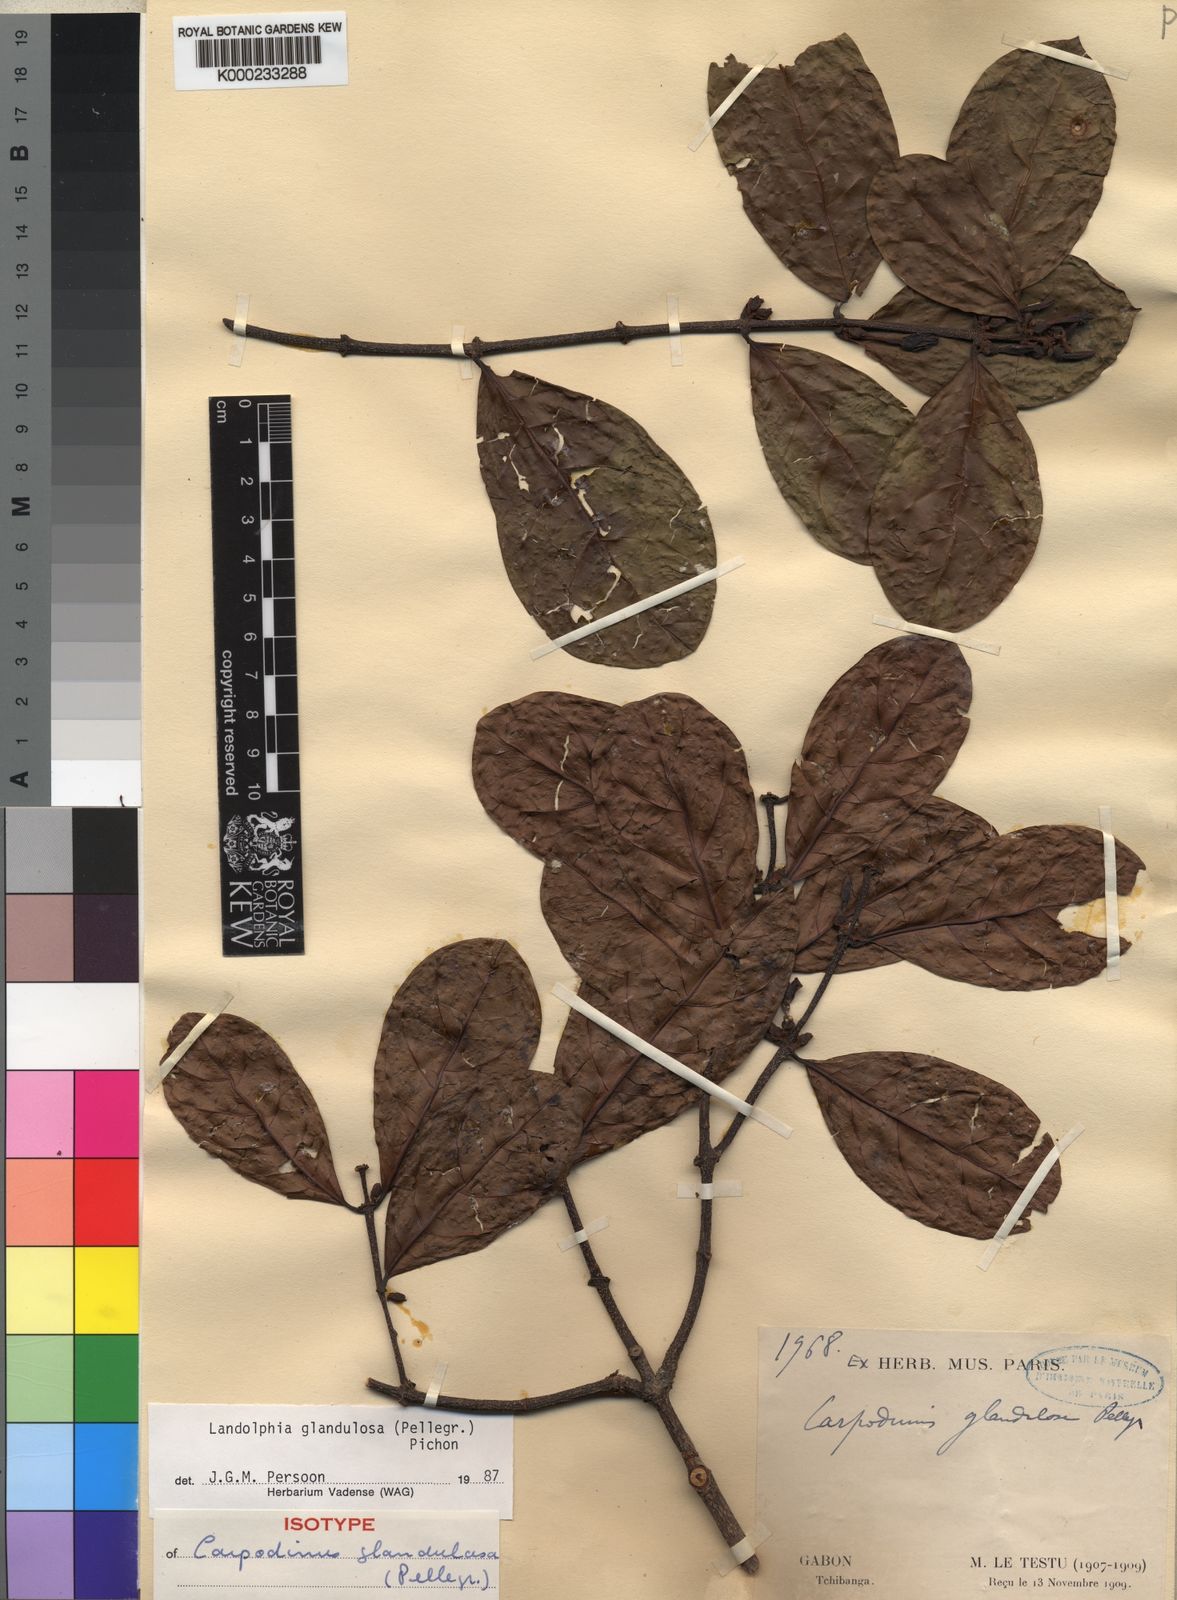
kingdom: Plantae
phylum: Tracheophyta
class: Magnoliopsida
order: Gentianales
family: Apocynaceae
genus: Landolphia
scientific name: Landolphia glandulosa
